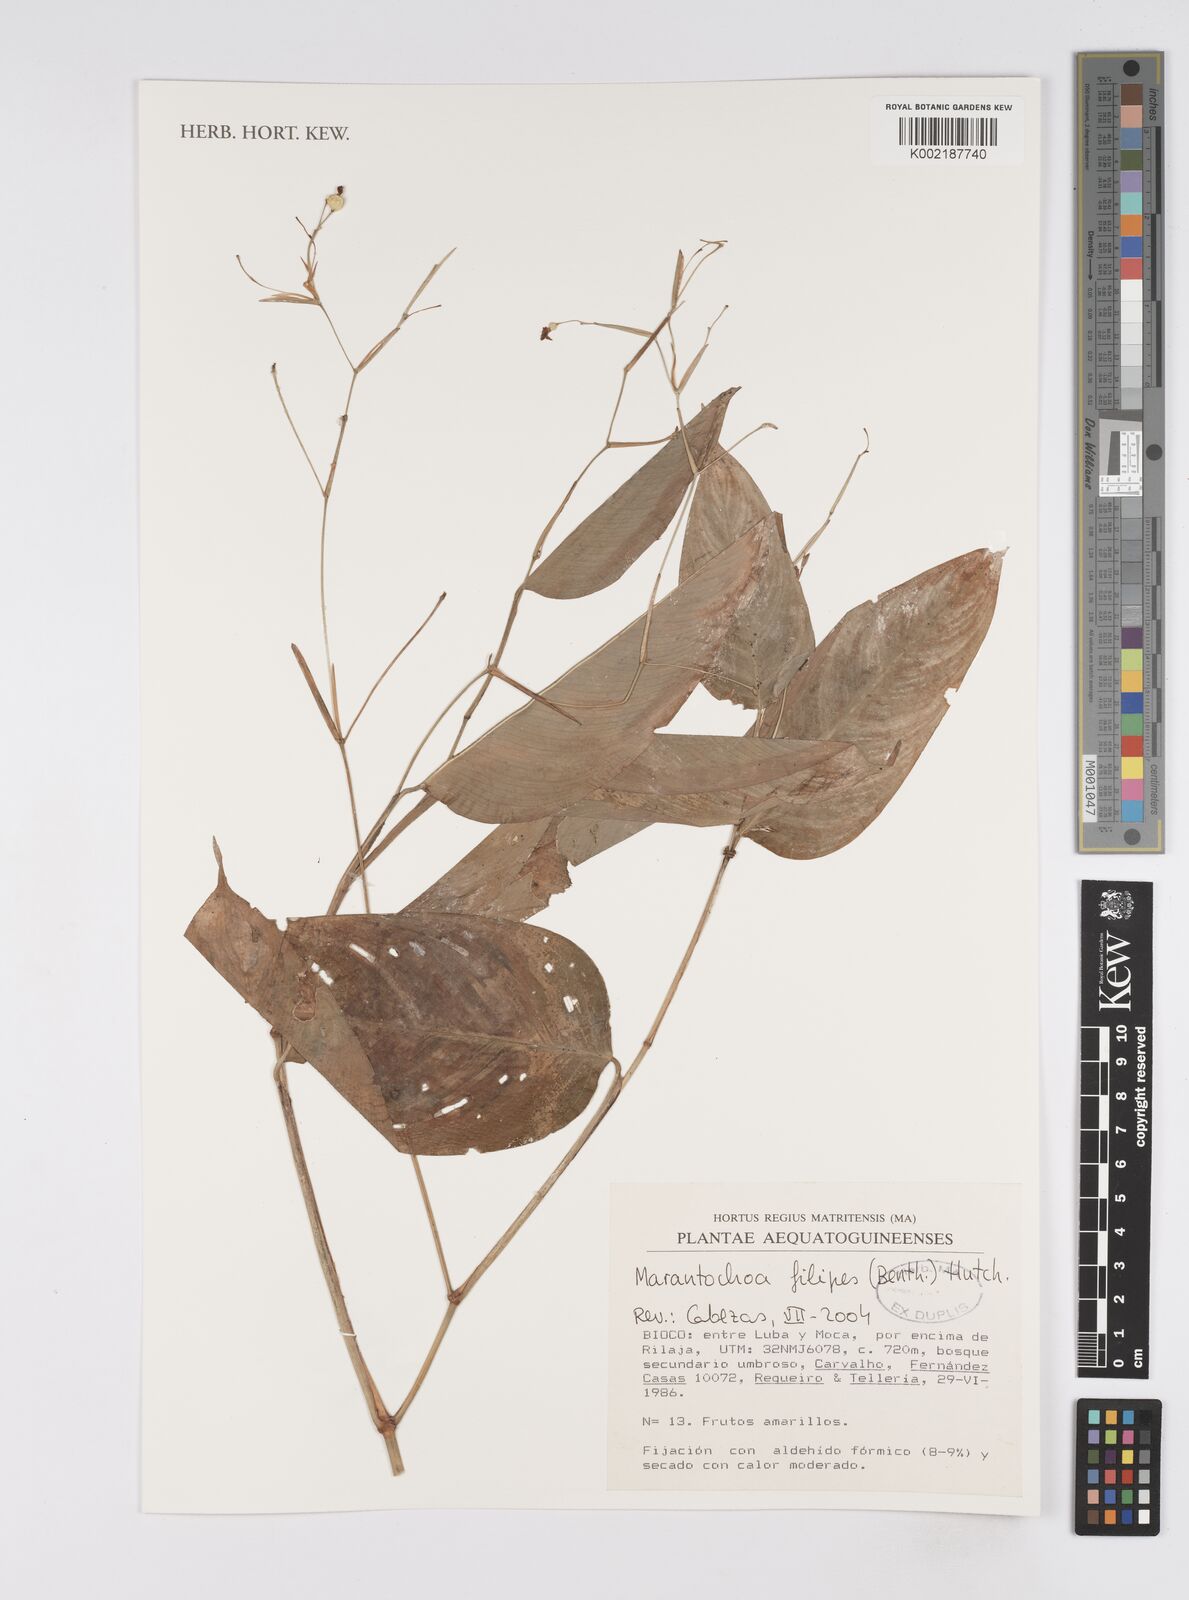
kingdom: Plantae
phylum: Tracheophyta
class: Liliopsida
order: Zingiberales
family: Marantaceae
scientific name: Marantaceae
